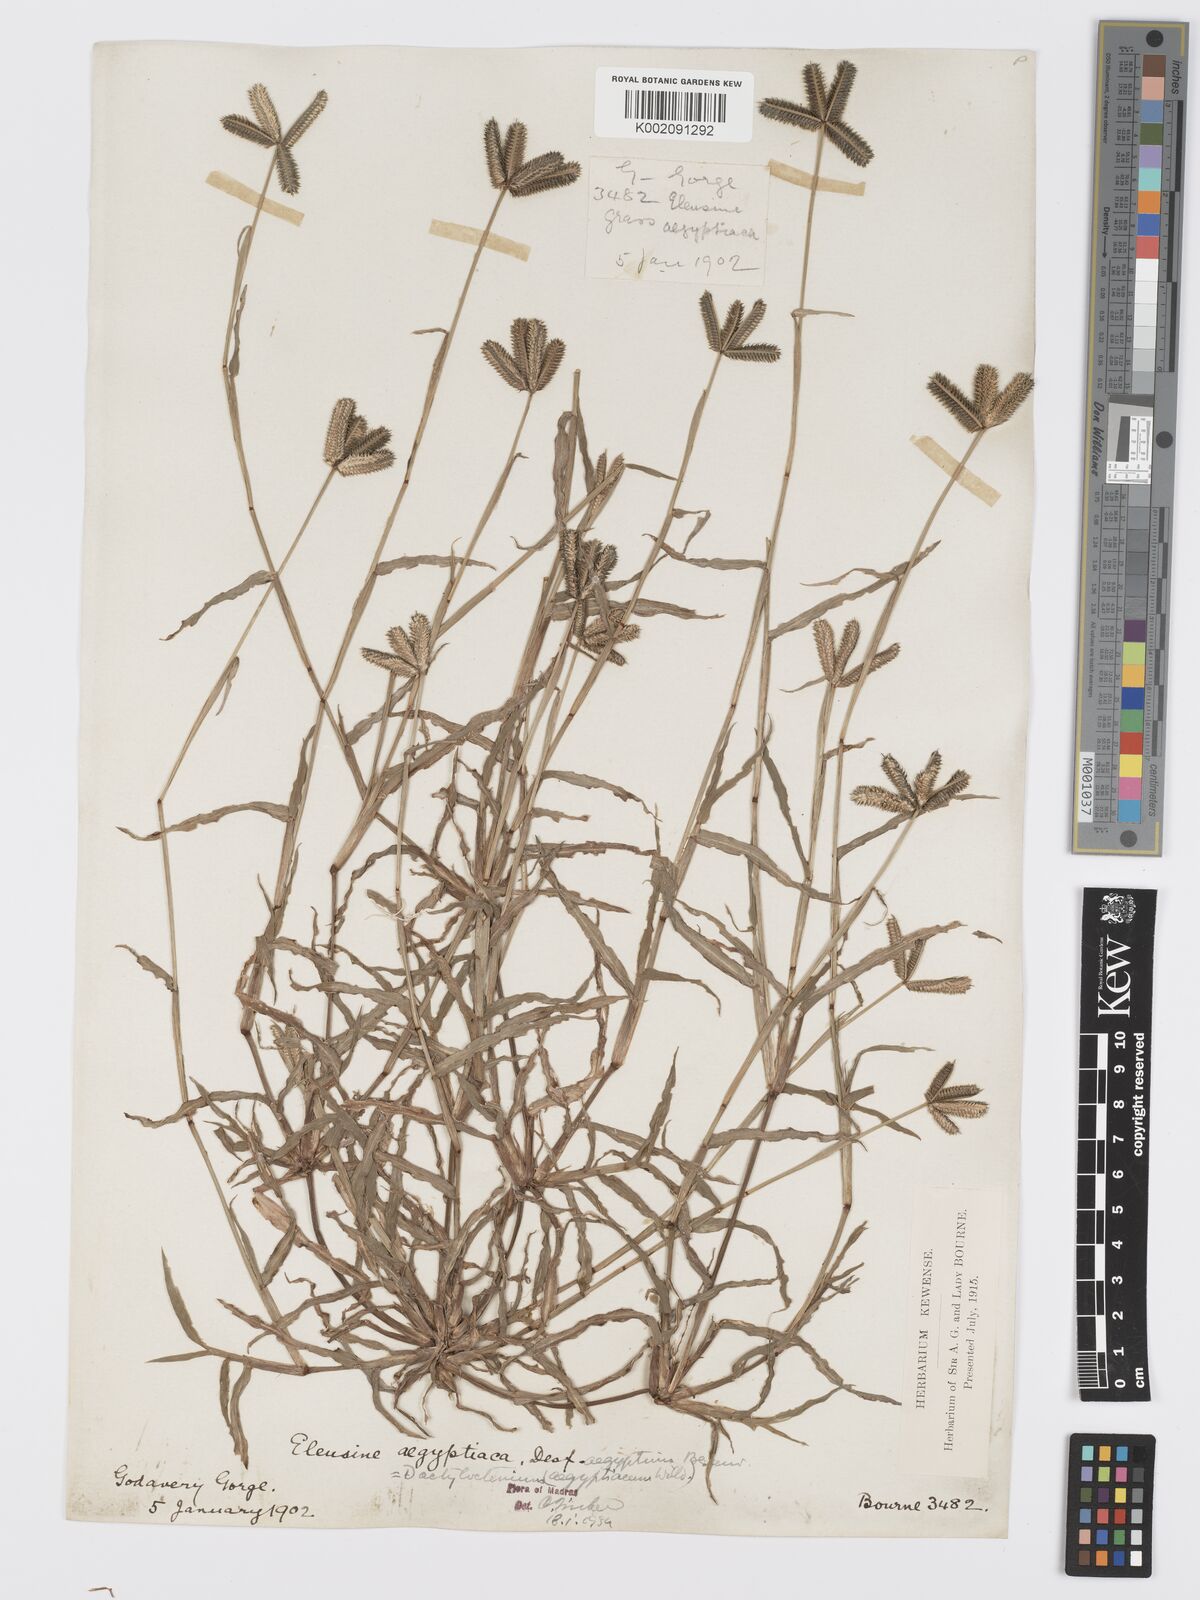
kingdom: Plantae
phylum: Tracheophyta
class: Liliopsida
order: Poales
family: Poaceae
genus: Dactyloctenium
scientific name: Dactyloctenium aegyptium
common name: Egyptian grass
